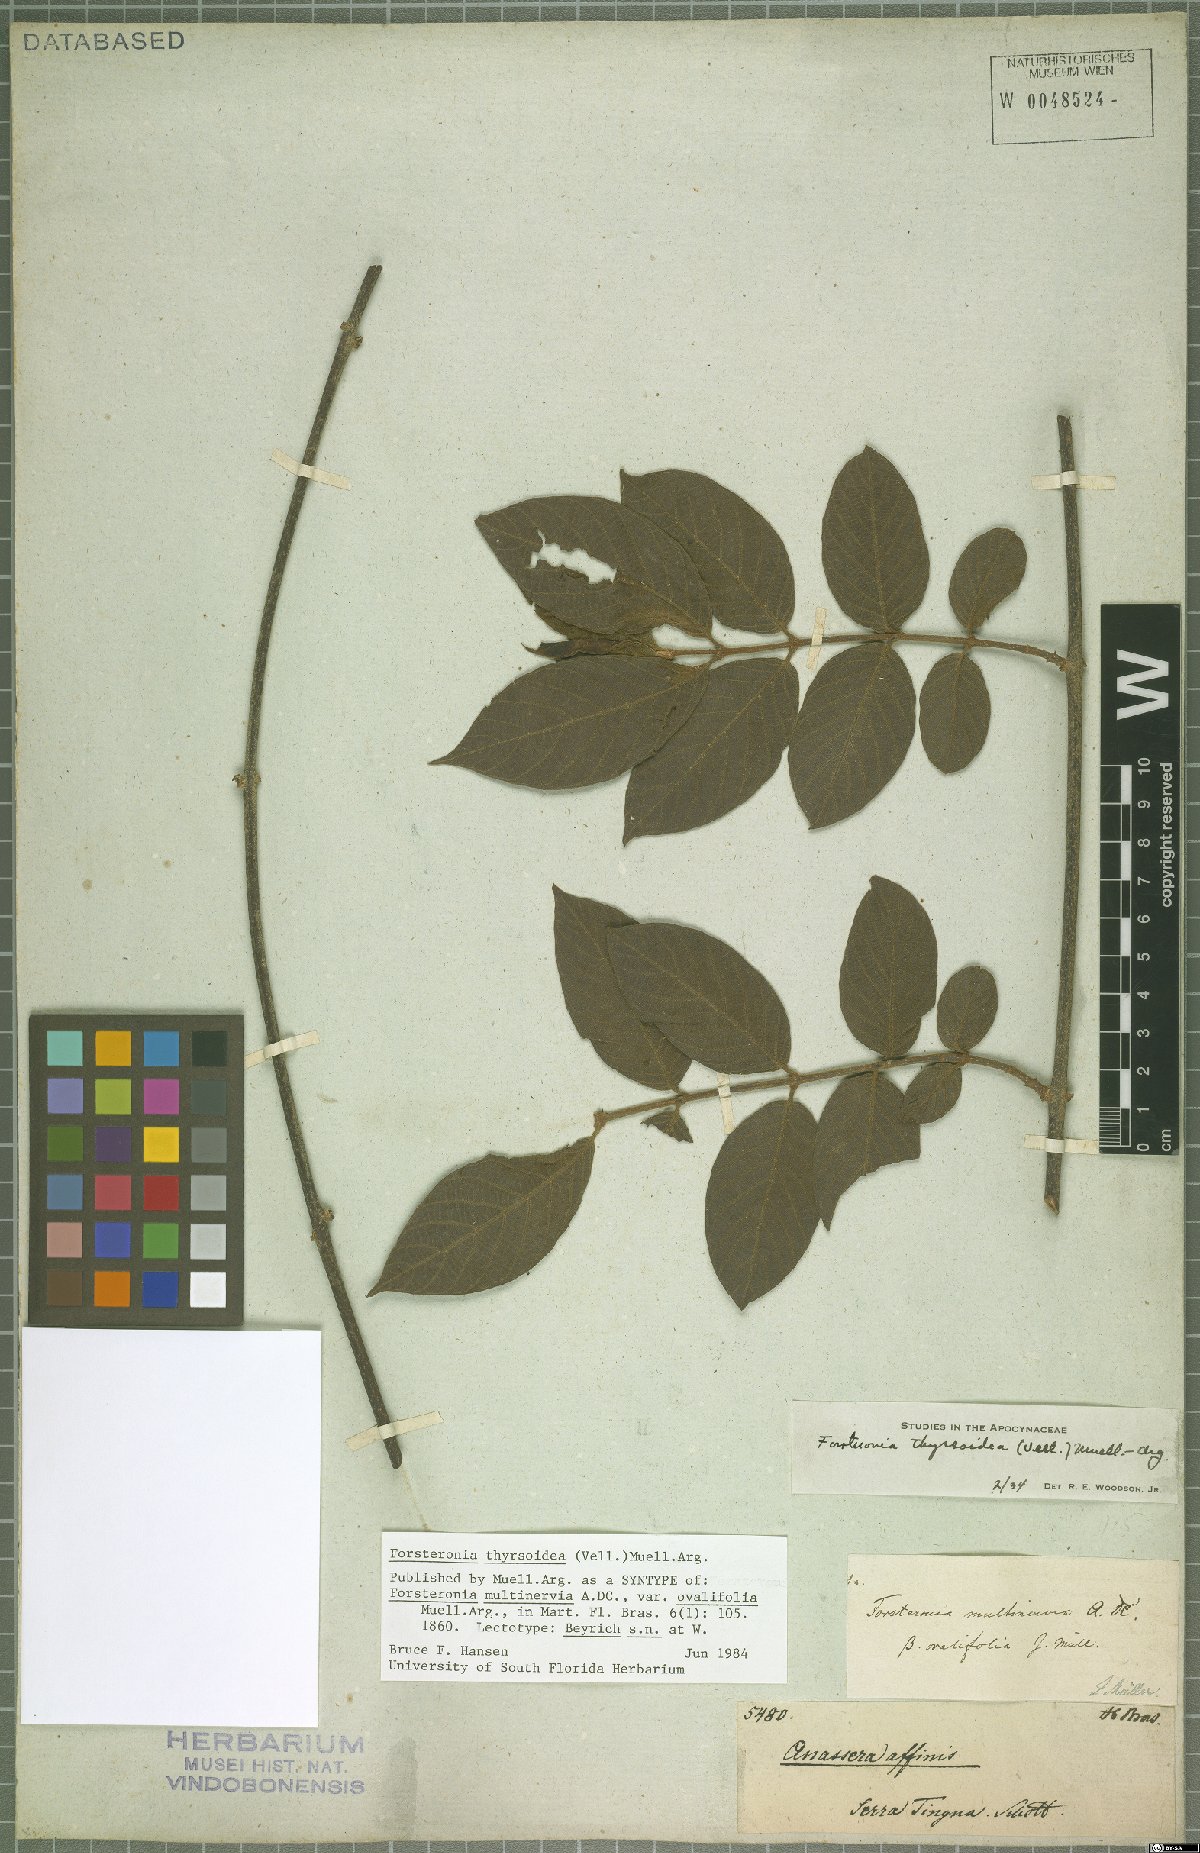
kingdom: Plantae
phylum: Tracheophyta
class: Magnoliopsida
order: Gentianales
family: Apocynaceae
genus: Forsteronia
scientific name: Forsteronia thyrsoidea
